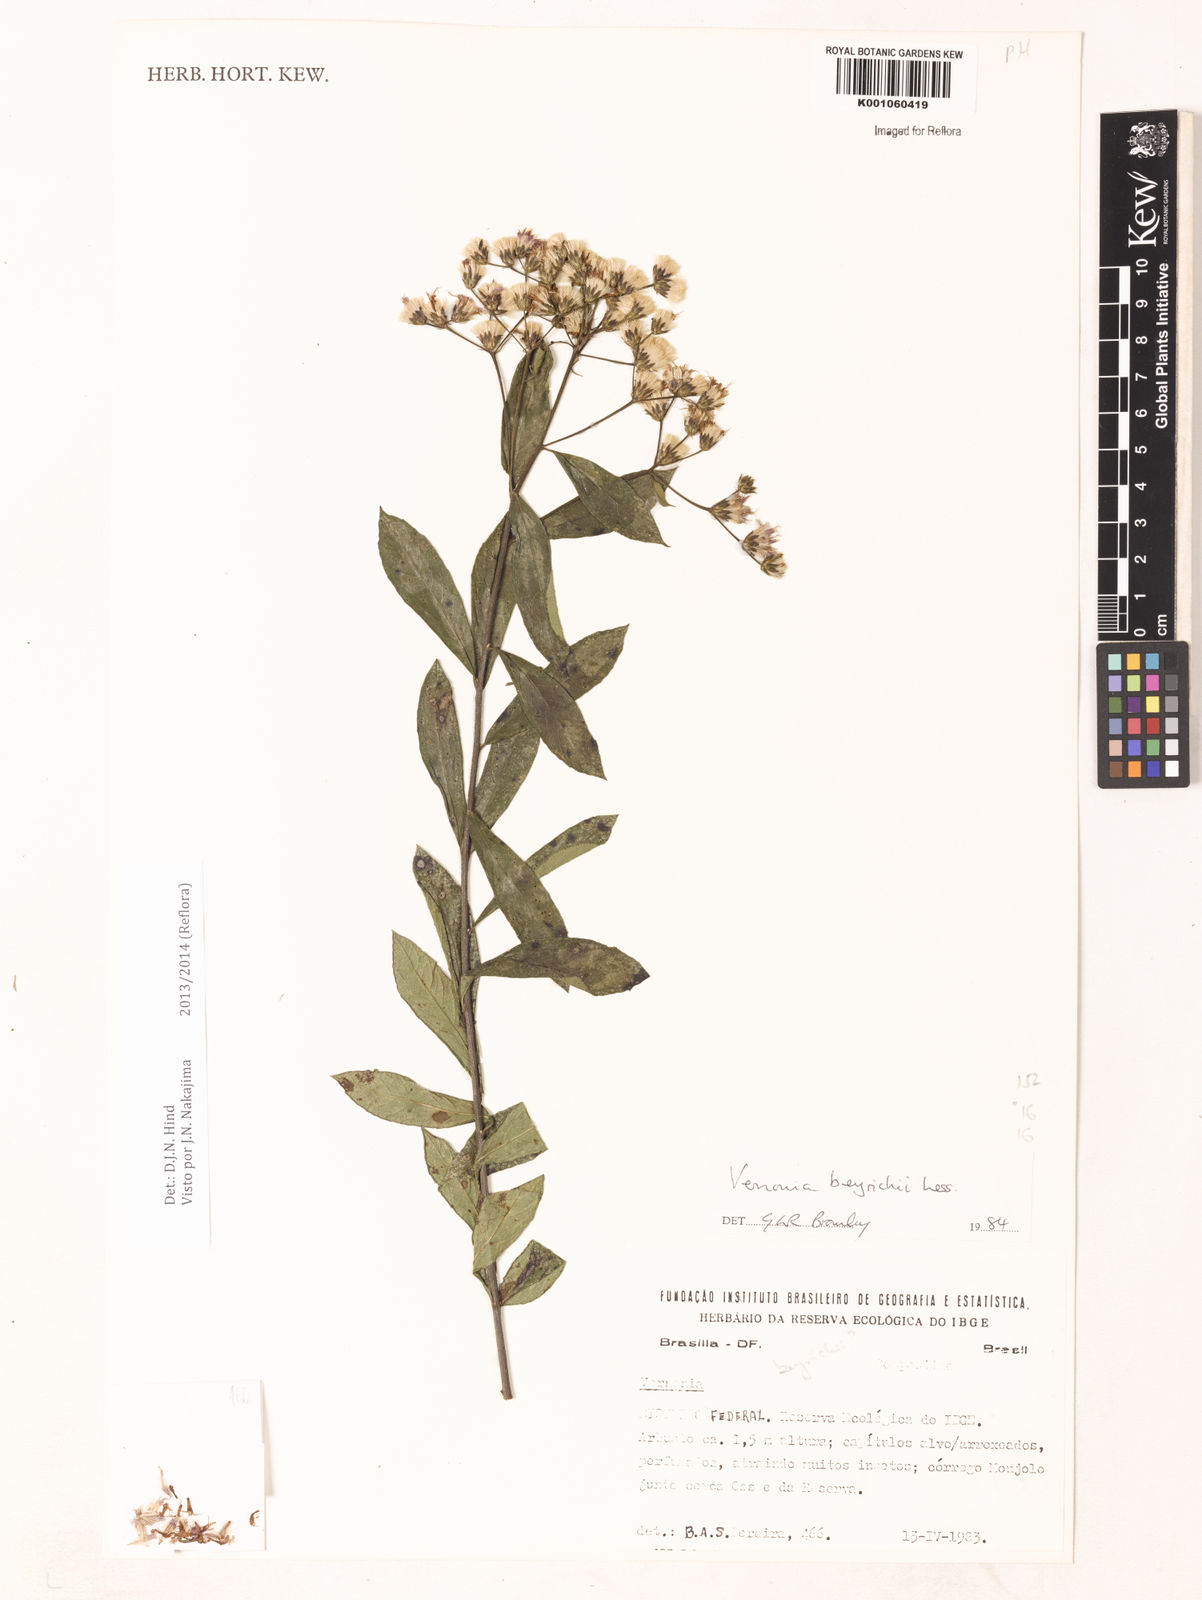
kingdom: Plantae
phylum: Tracheophyta
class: Magnoliopsida
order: Asterales
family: Asteraceae
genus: Vernonanthura
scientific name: Vernonanthura beyrichii
